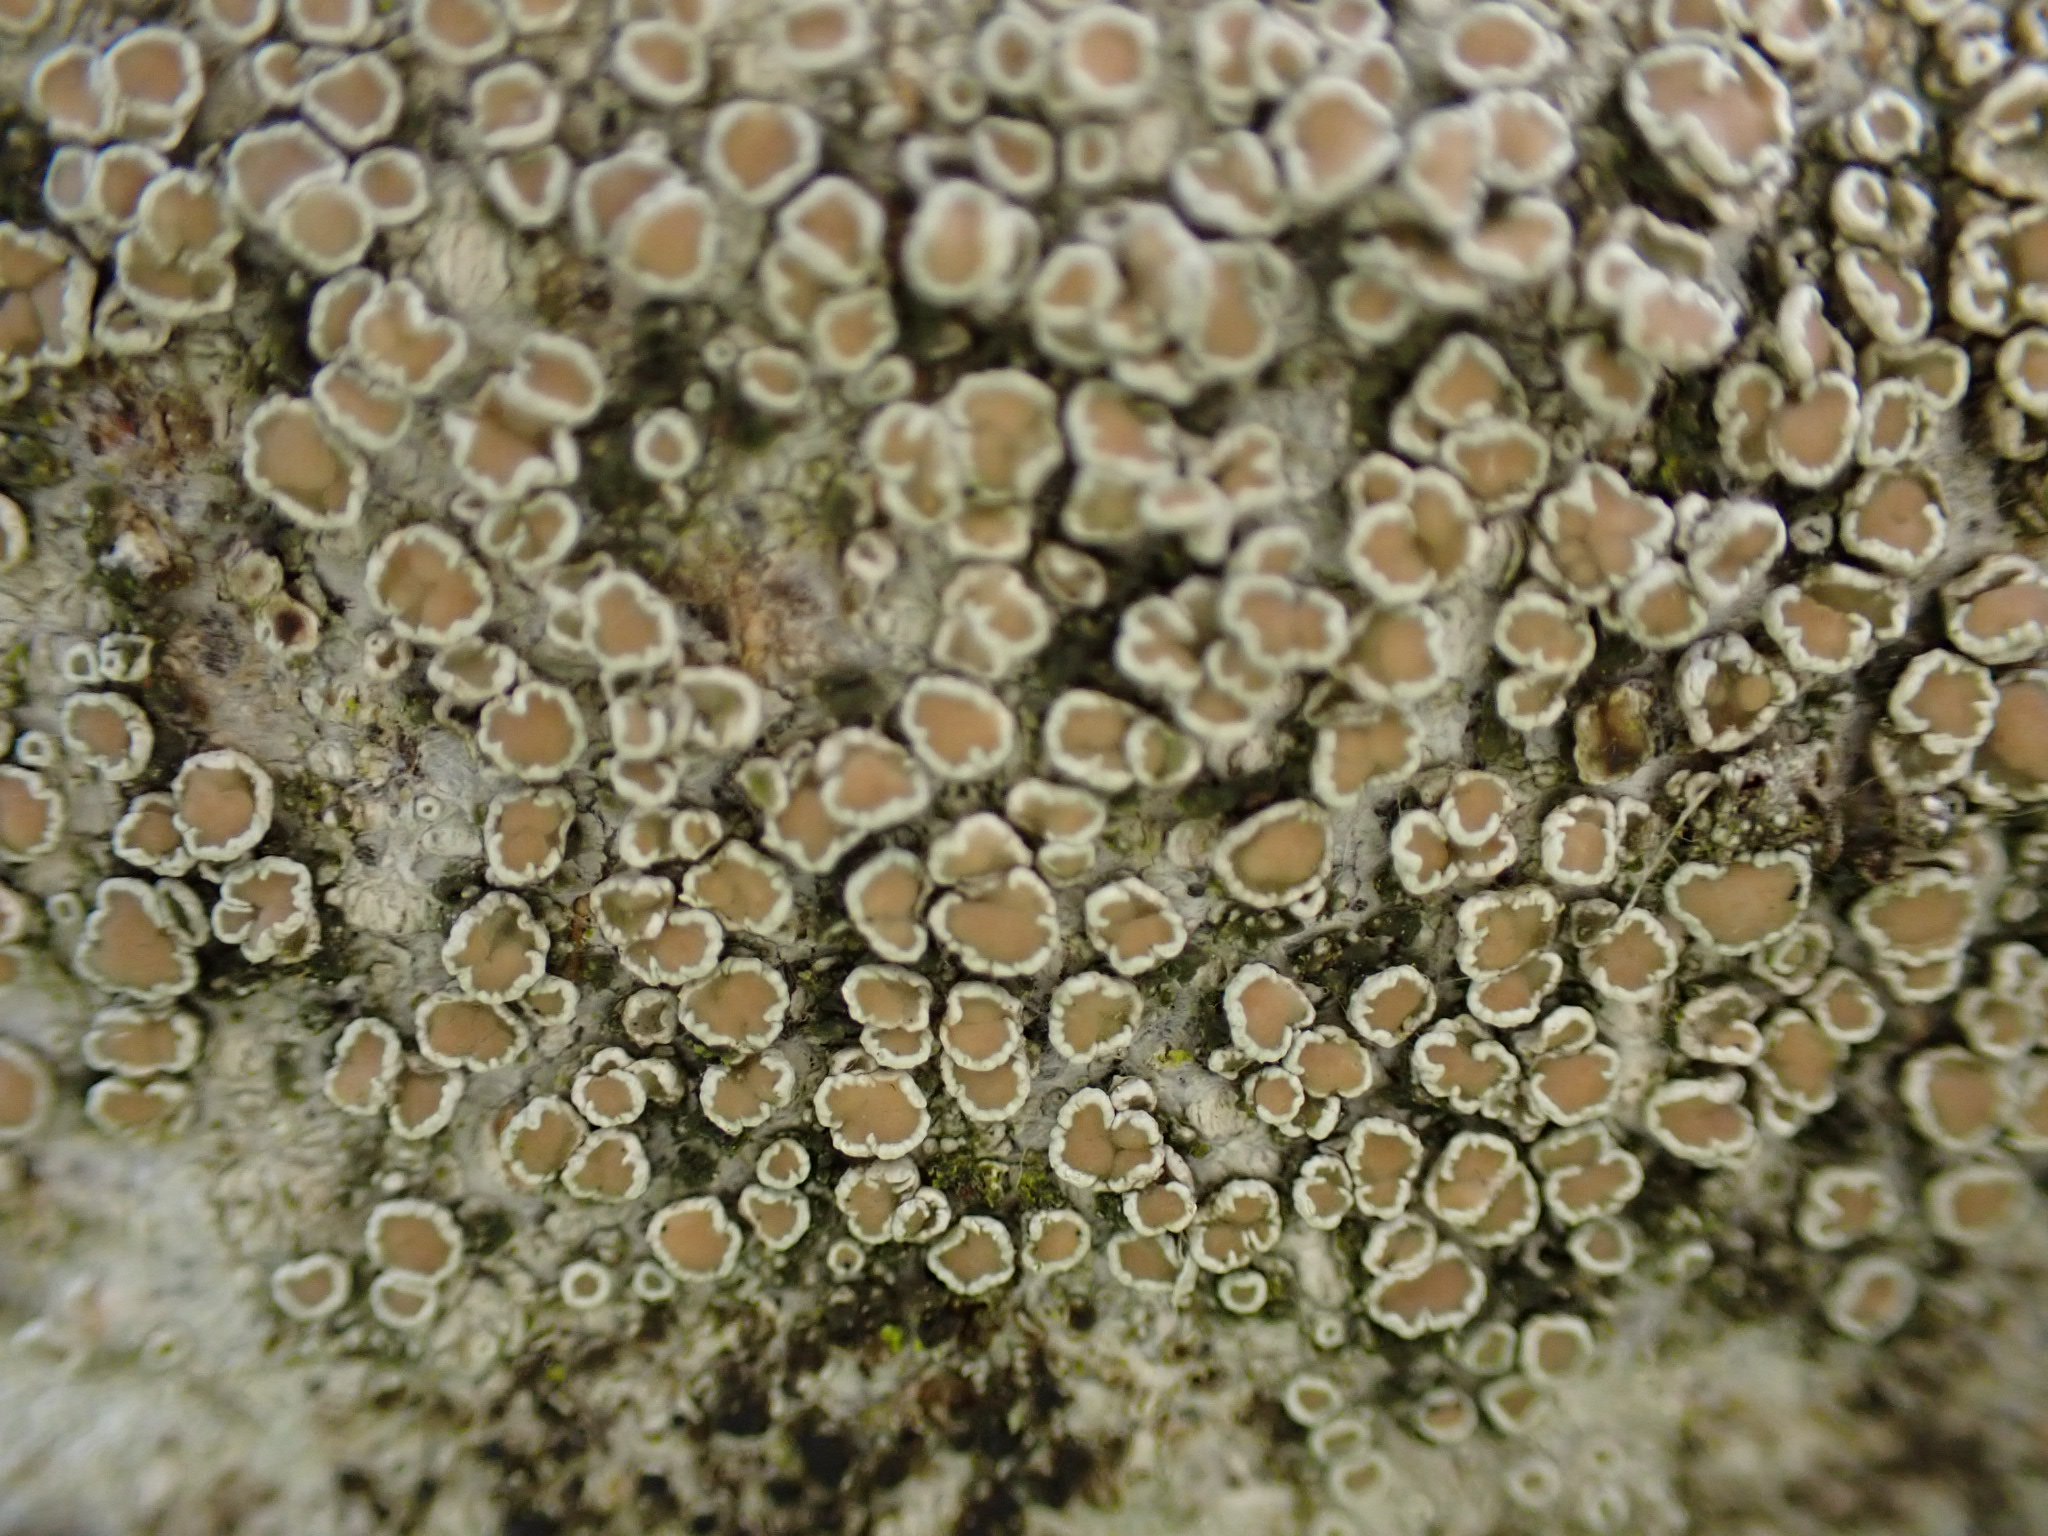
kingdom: Fungi
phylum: Ascomycota
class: Lecanoromycetes
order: Lecanorales
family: Lecanoraceae
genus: Lecanora
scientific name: Lecanora chlarotera
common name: brun kantskivelav
